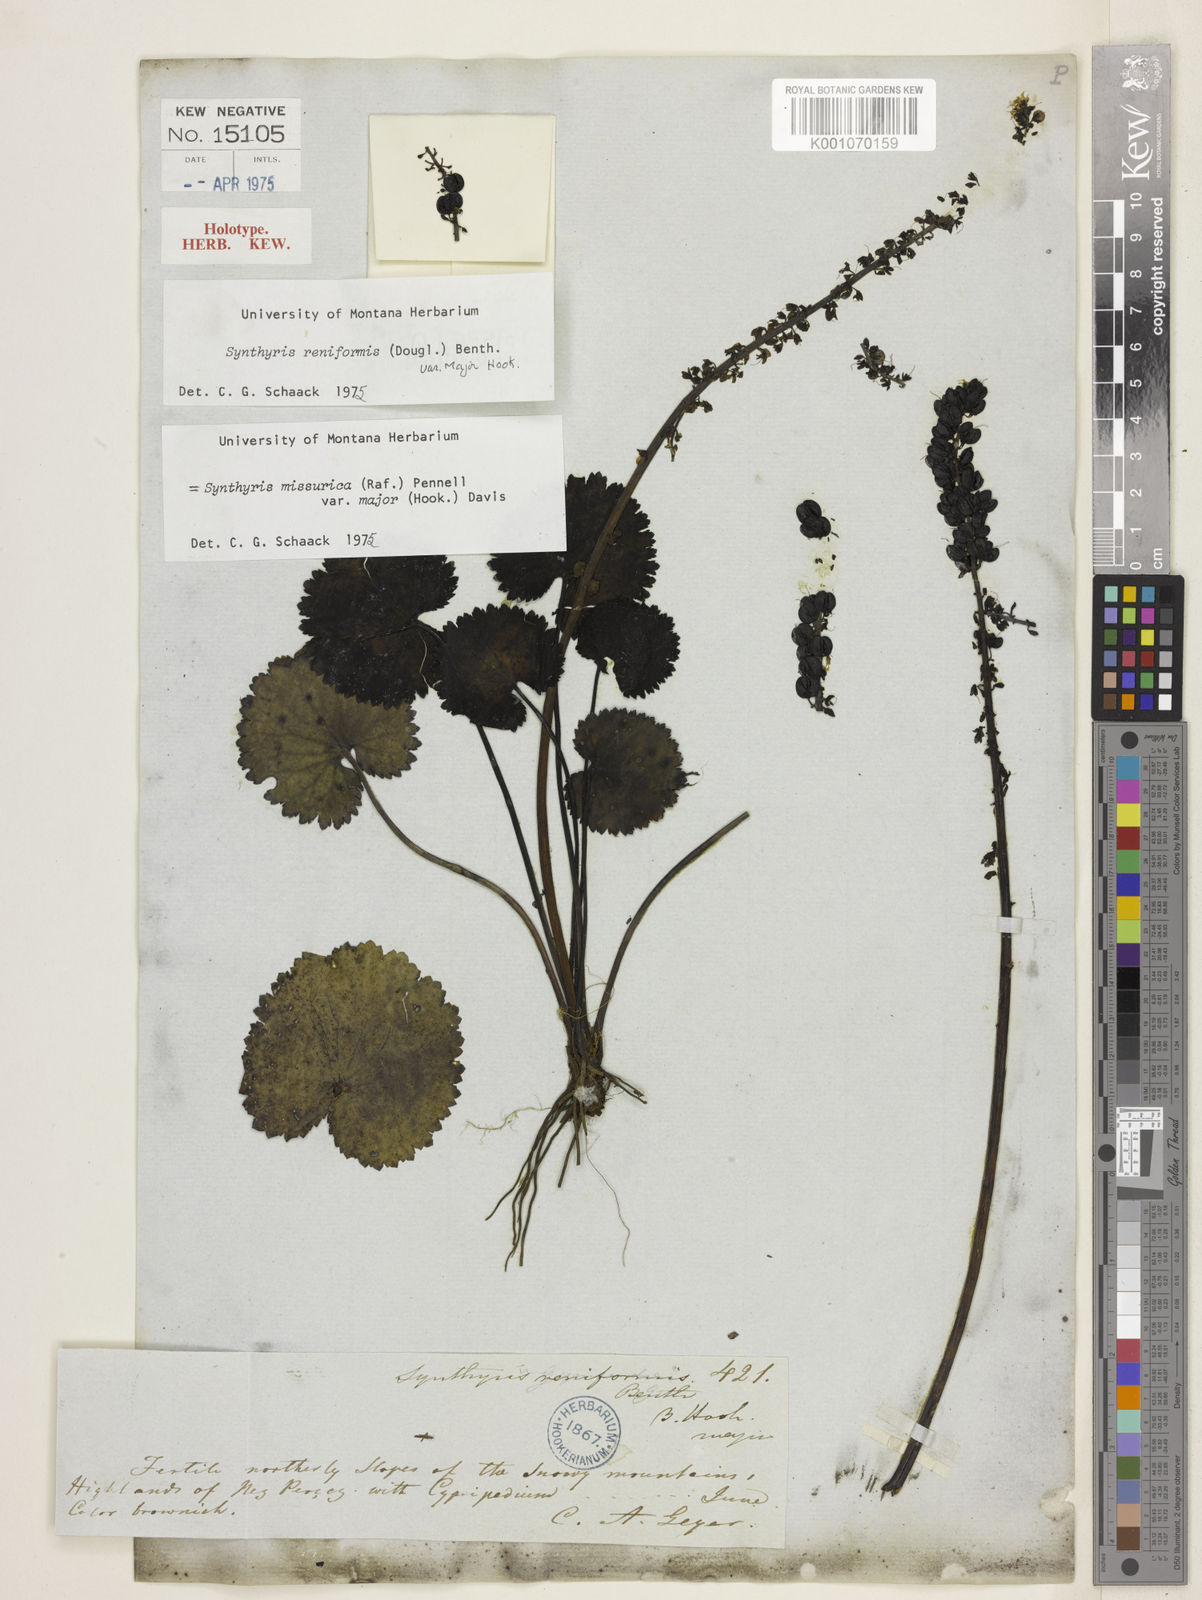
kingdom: Plantae
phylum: Tracheophyta
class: Magnoliopsida
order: Lamiales
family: Plantaginaceae
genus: Synthyris
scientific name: Synthyris missurica
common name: Kitten-tails
